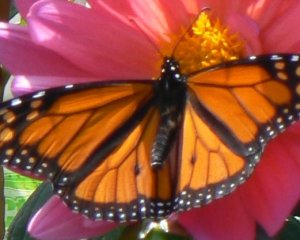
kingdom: Animalia
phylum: Arthropoda
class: Insecta
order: Lepidoptera
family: Nymphalidae
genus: Danaus
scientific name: Danaus plexippus
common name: Monarch
